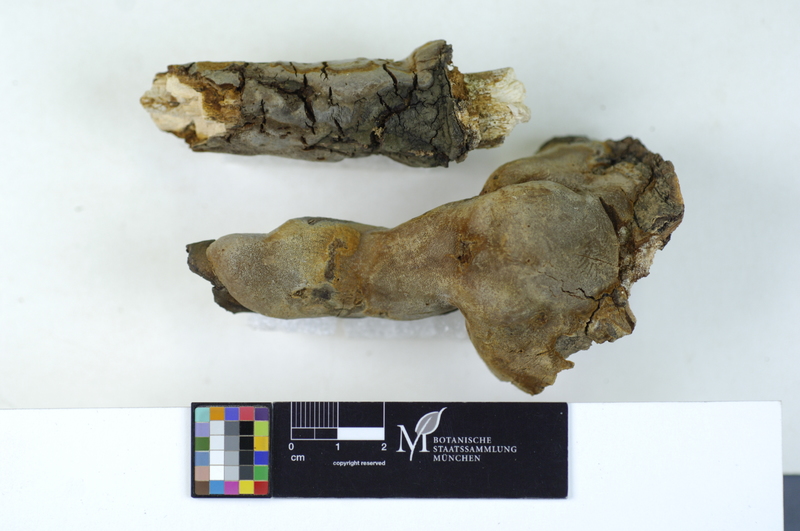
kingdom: Plantae
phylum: Tracheophyta
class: Magnoliopsida
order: Malpighiales
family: Salicaceae
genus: Populus
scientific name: Populus tremula
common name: European aspen
